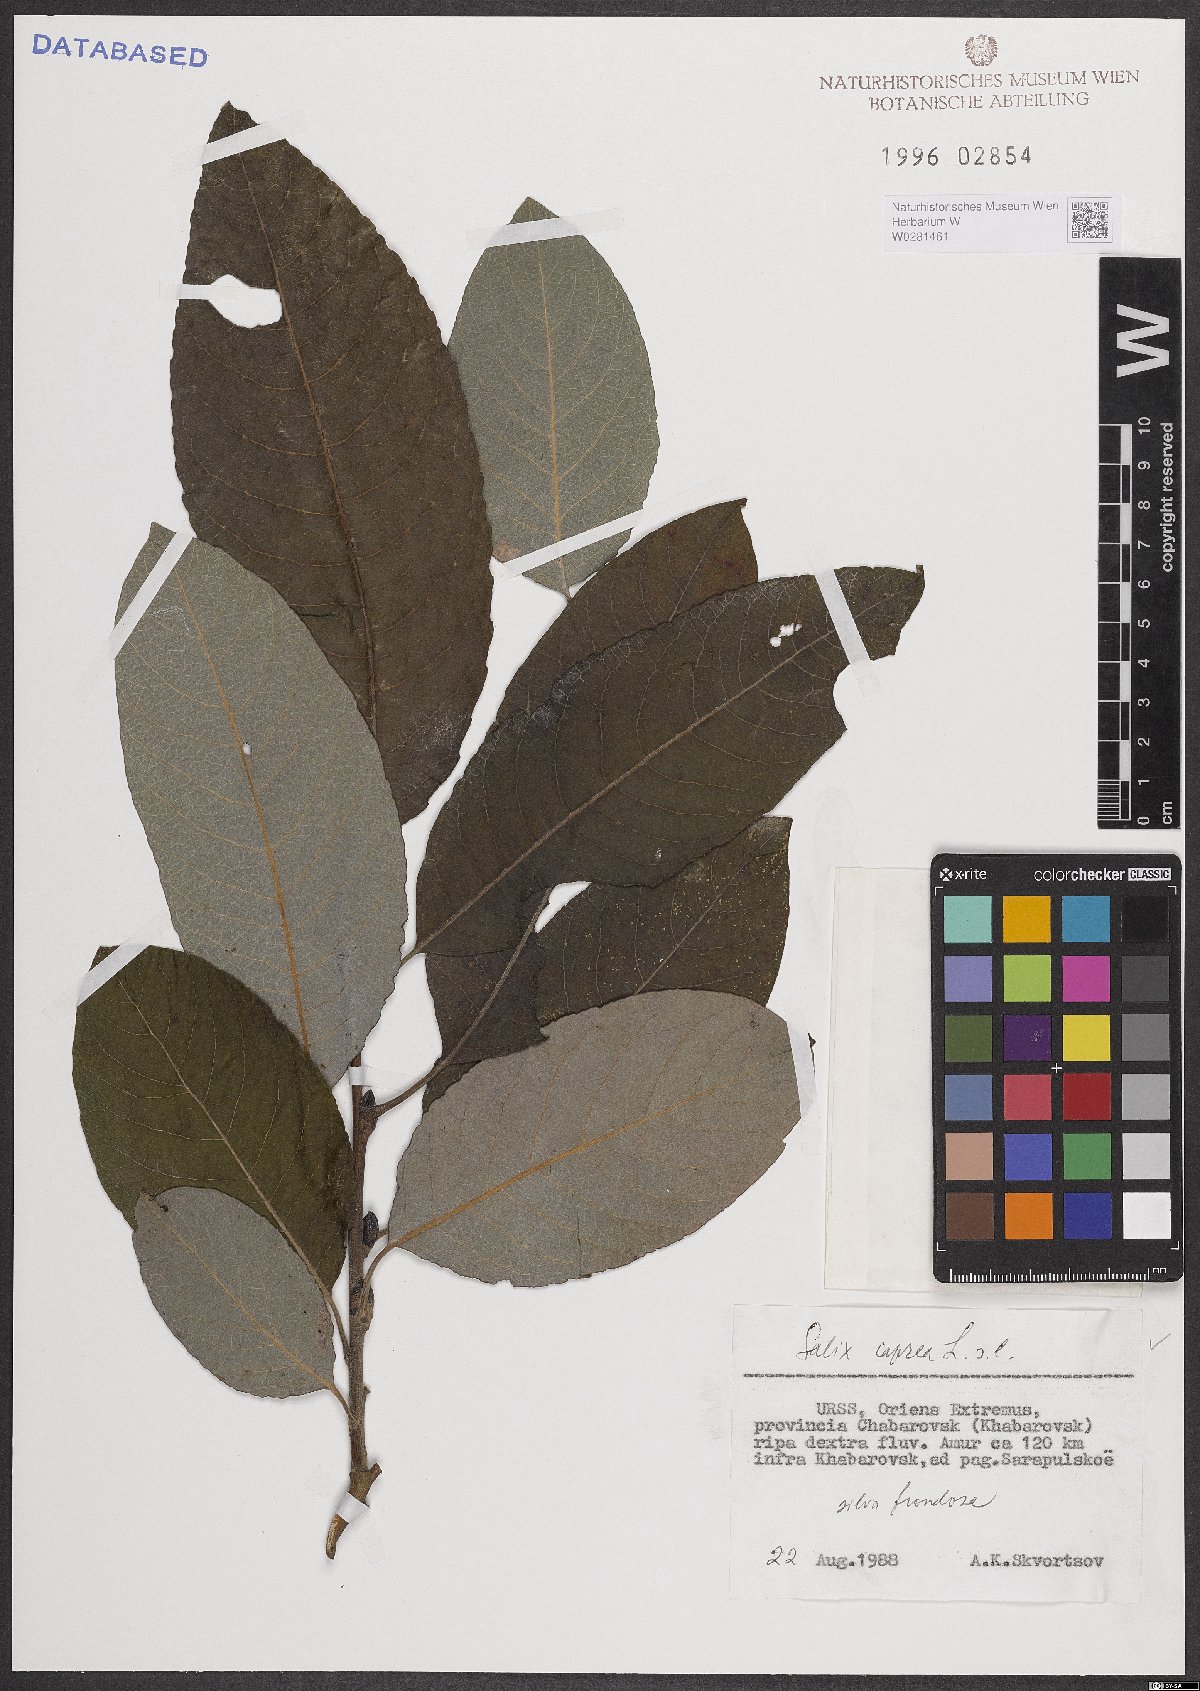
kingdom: Plantae
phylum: Tracheophyta
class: Magnoliopsida
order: Malpighiales
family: Salicaceae
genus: Salix
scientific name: Salix caprea
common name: Goat willow
